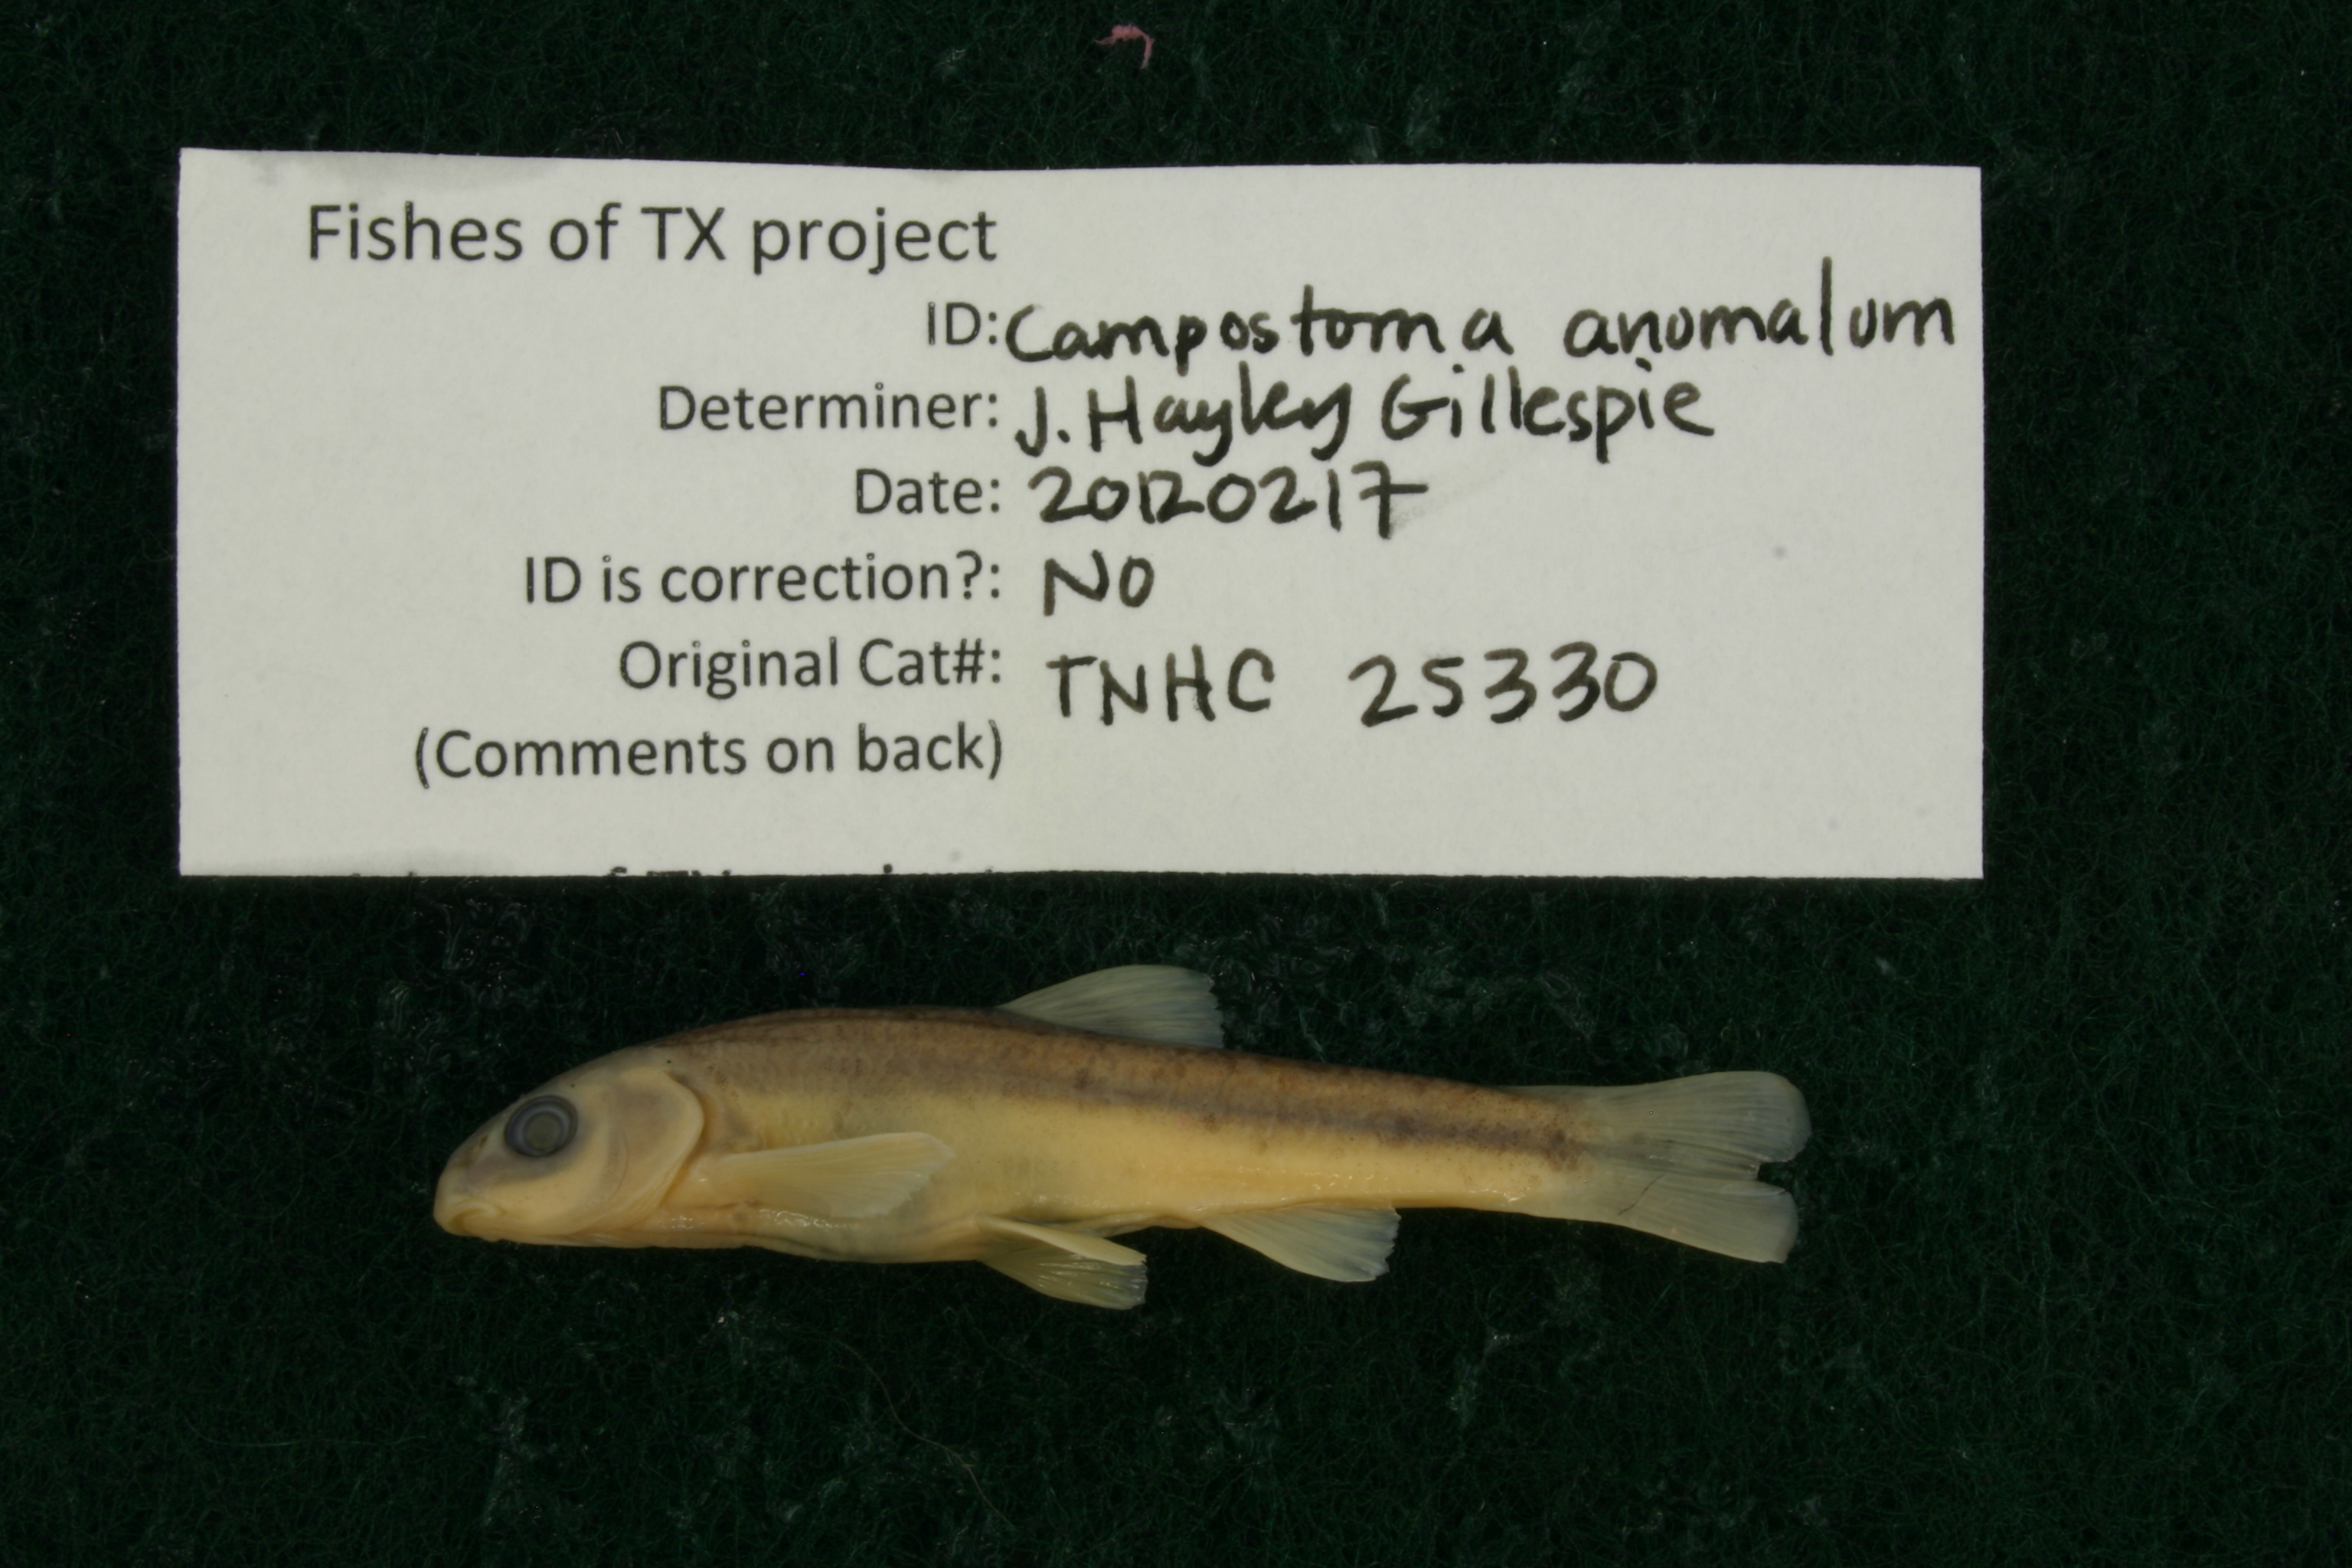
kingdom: Animalia
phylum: Chordata
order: Cypriniformes
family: Cyprinidae
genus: Campostoma
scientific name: Campostoma anomalum
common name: Central stoneroller
